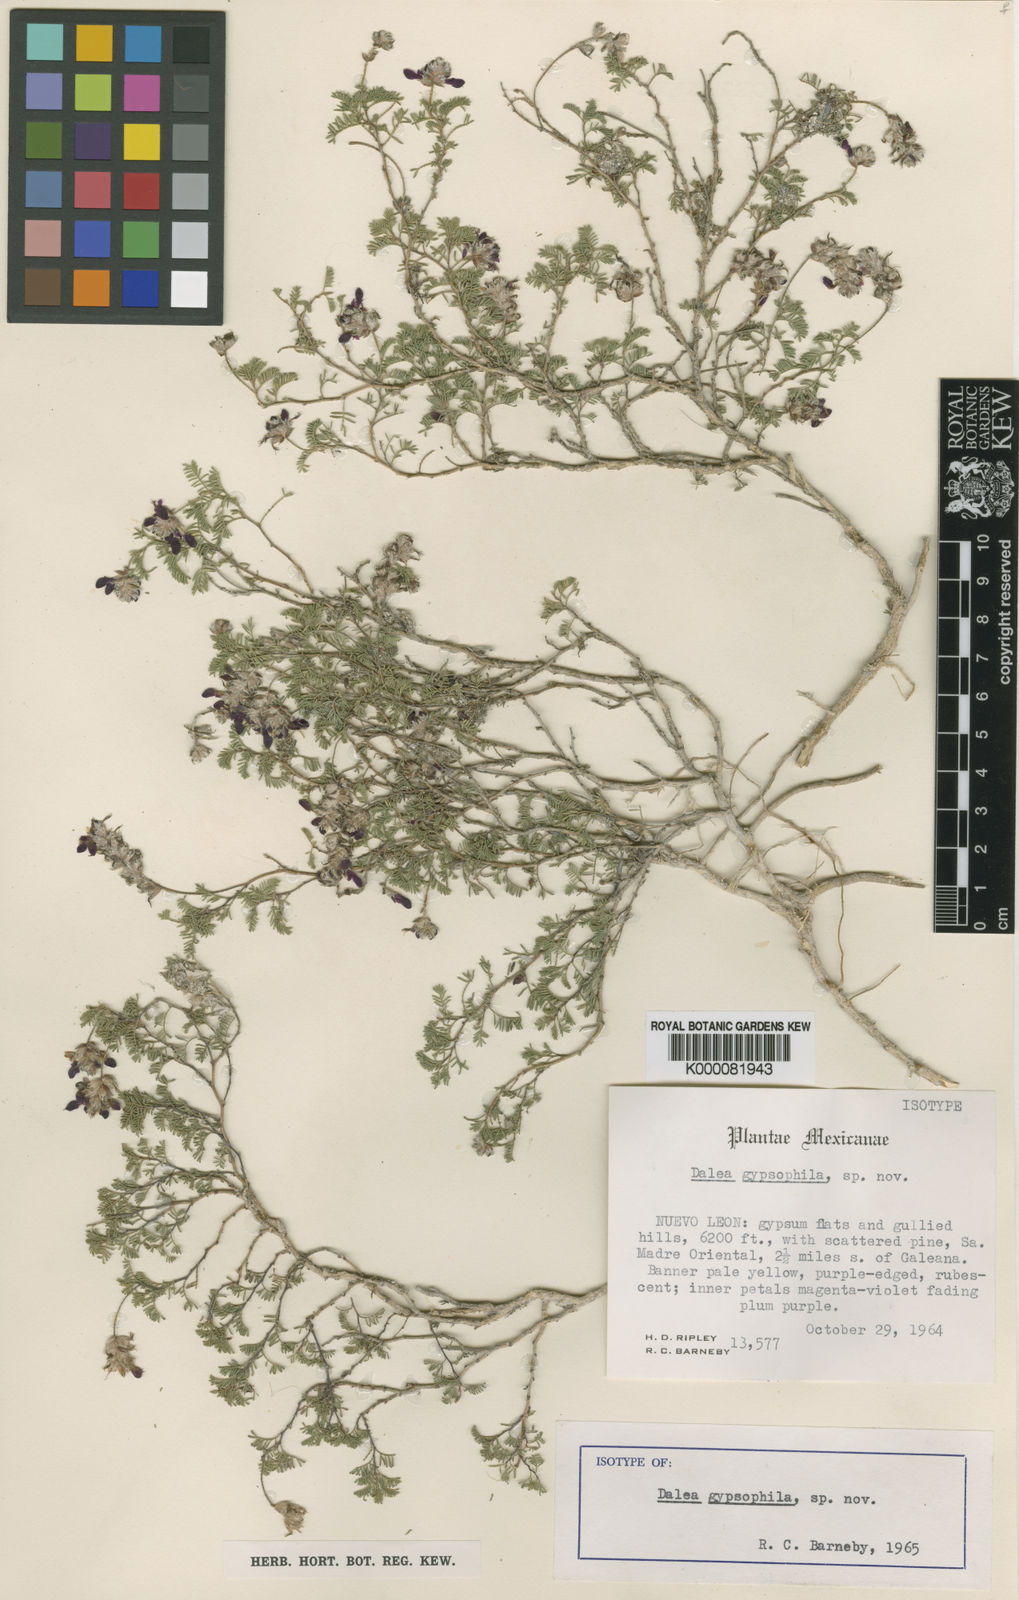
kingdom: Plantae
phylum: Tracheophyta
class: Magnoliopsida
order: Fabales
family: Fabaceae
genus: Dalea
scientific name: Dalea gypsophila
